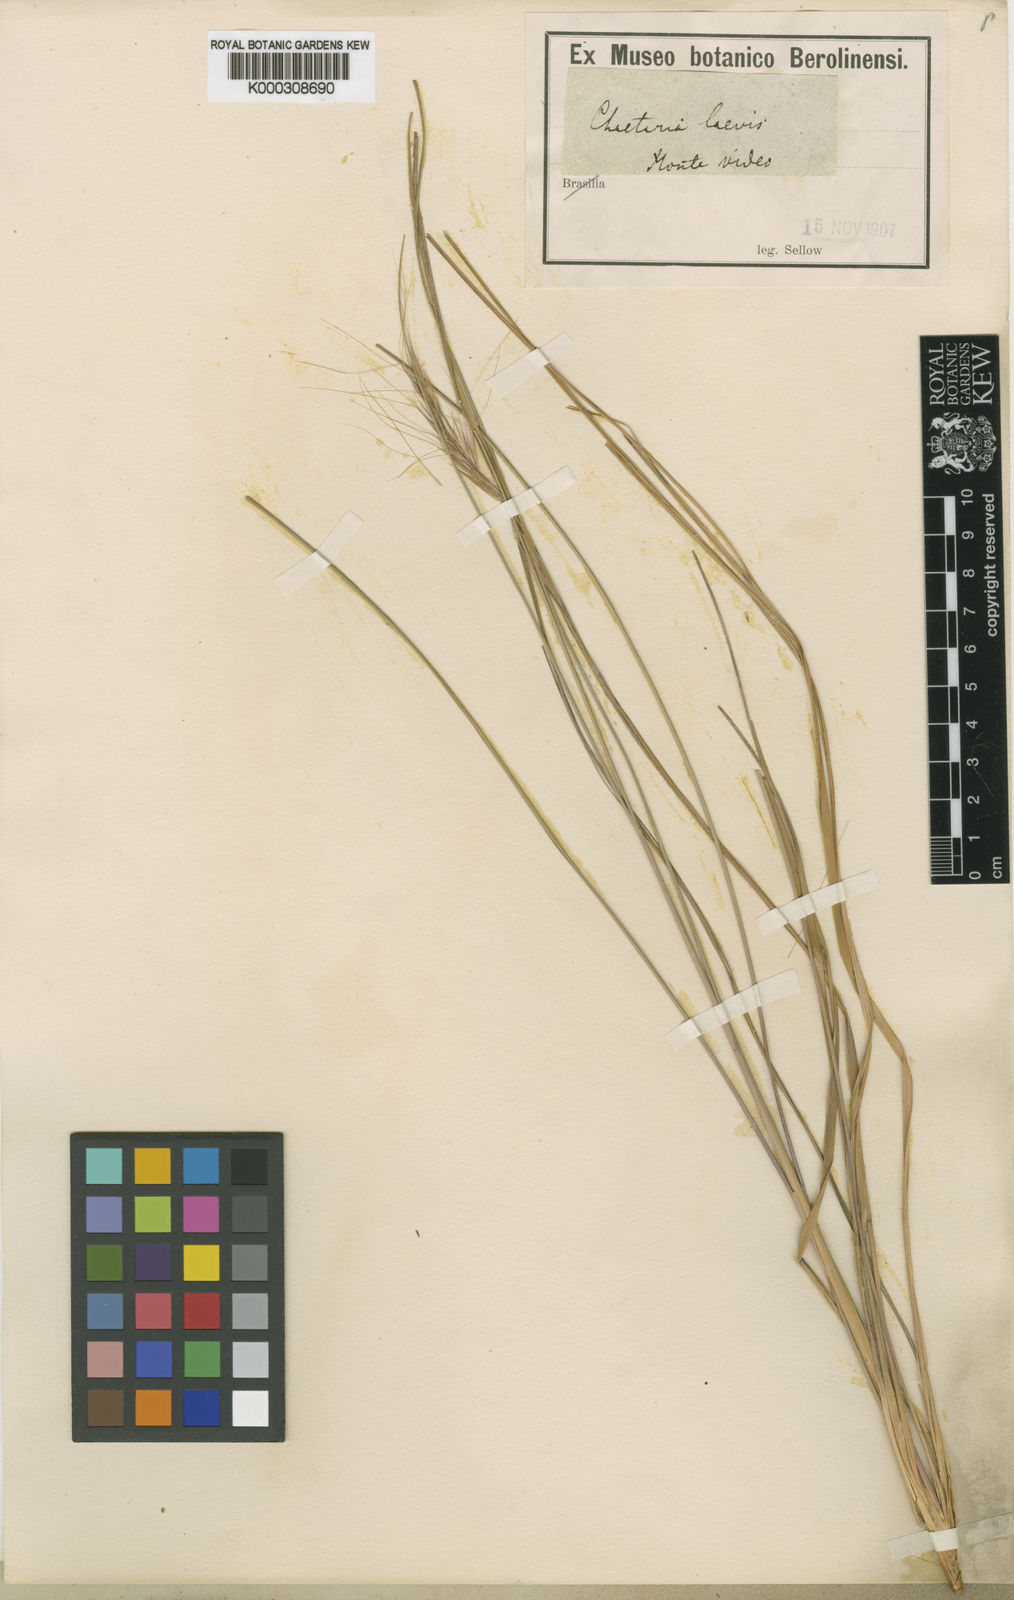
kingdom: Plantae
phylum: Tracheophyta
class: Liliopsida
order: Poales
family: Poaceae
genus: Aristida
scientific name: Aristida laevis
